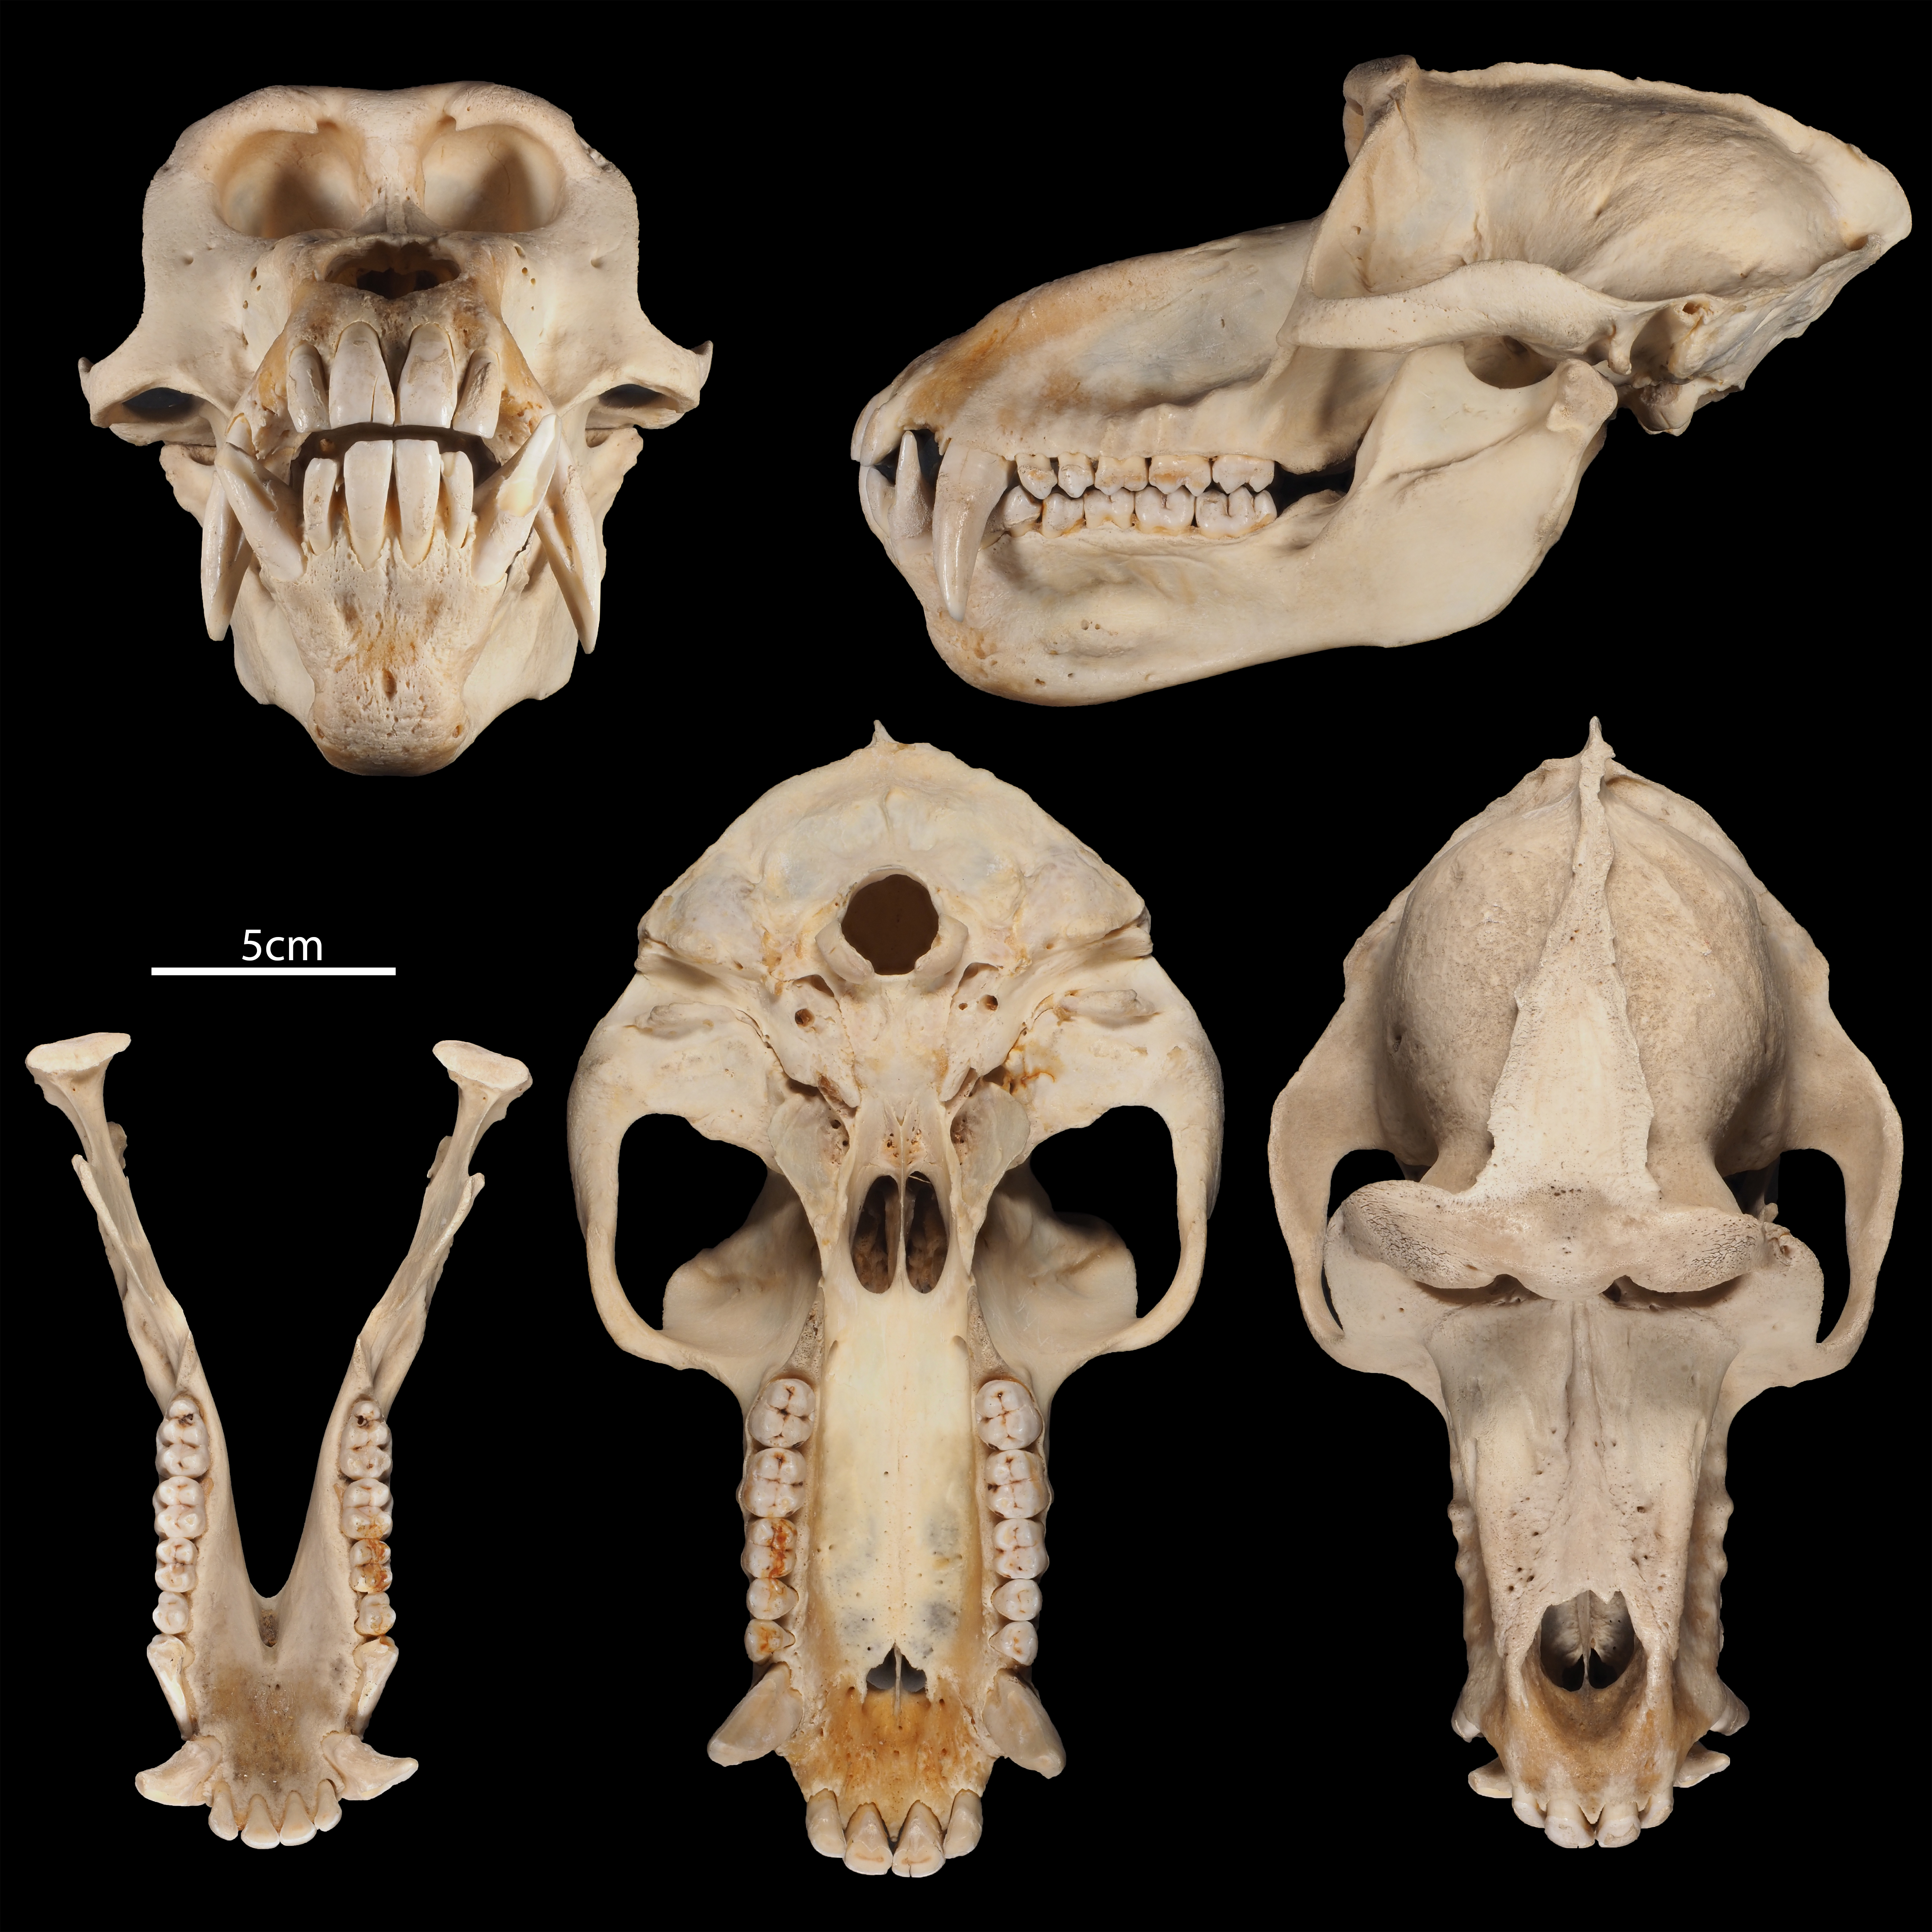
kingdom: Animalia
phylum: Chordata
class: Mammalia
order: Primates
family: Cercopithecidae
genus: Papio
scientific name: Papio
